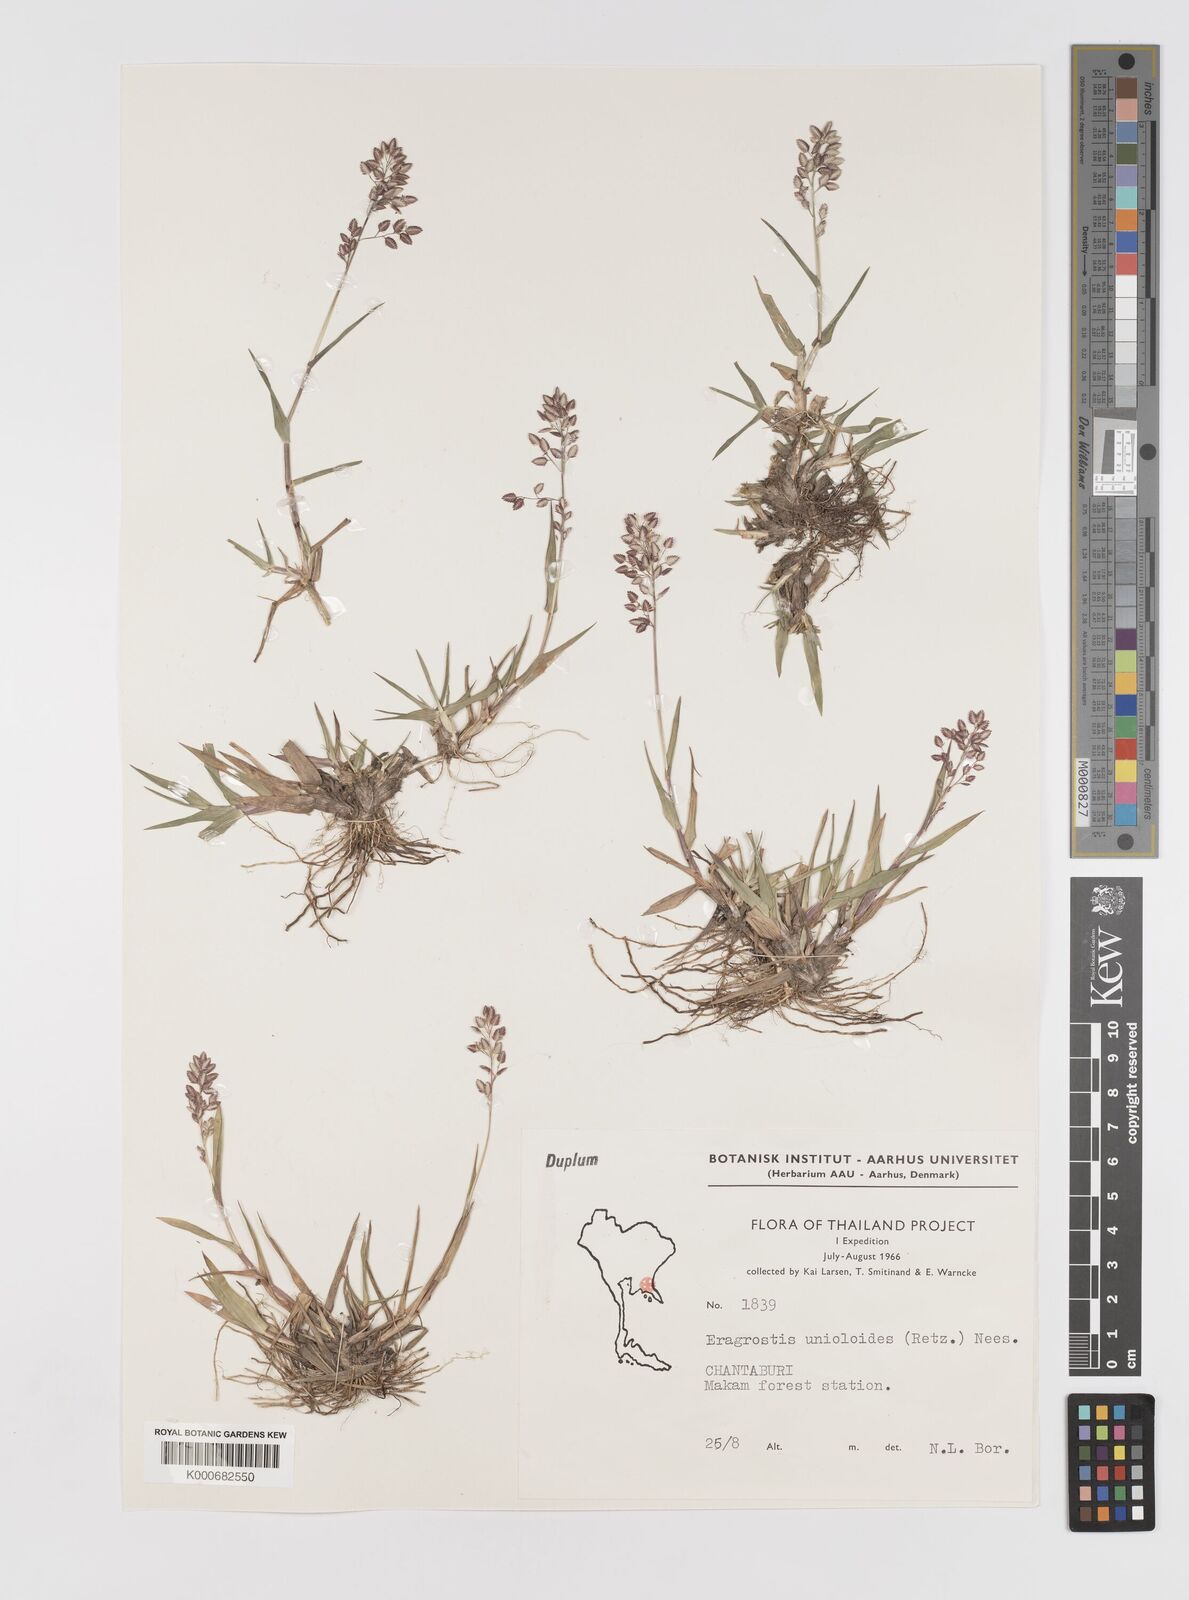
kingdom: Plantae
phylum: Tracheophyta
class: Liliopsida
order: Poales
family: Poaceae
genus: Eragrostis
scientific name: Eragrostis unioloides
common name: Chinese lovegrass
